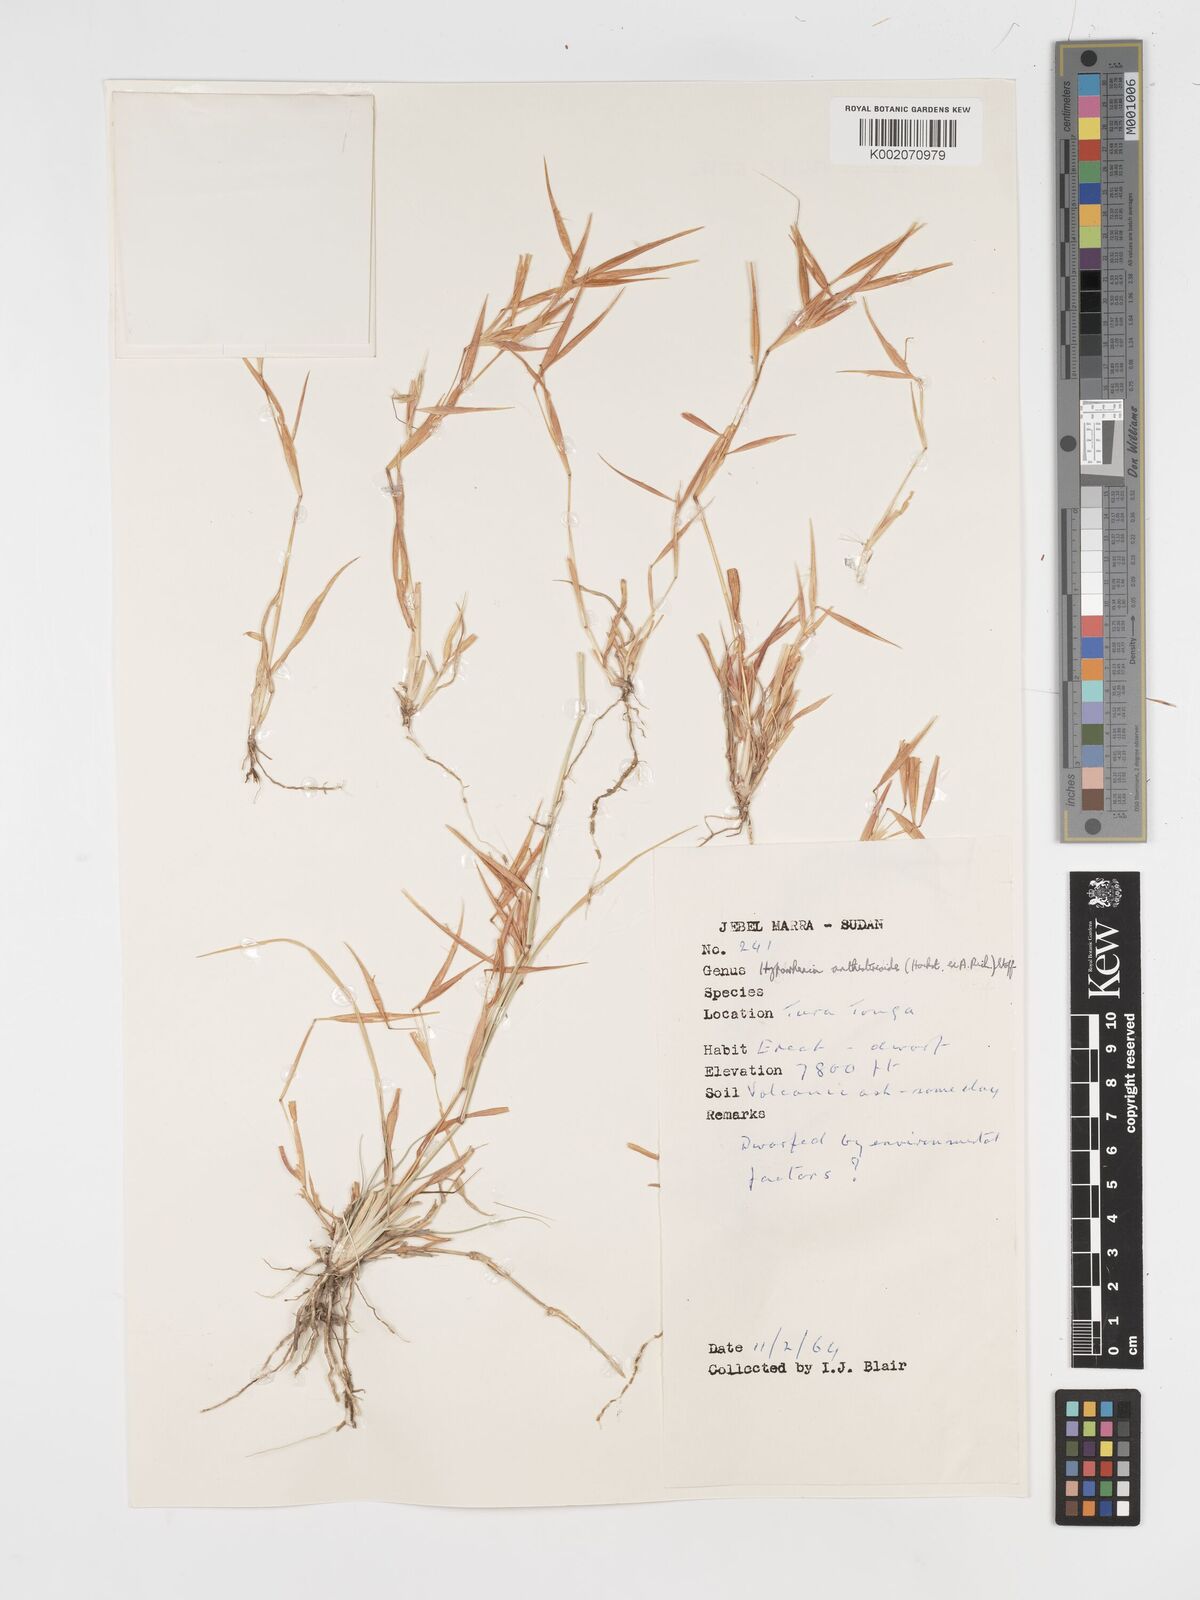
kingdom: Plantae
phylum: Tracheophyta
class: Liliopsida
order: Poales
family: Poaceae
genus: Hyparrhenia
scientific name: Hyparrhenia anthistirioides
